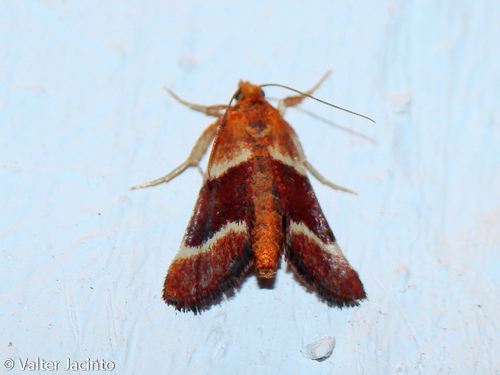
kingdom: Animalia
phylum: Arthropoda
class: Insecta
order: Lepidoptera
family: Pyralidae
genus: Stemmatophora
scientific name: Stemmatophora combustalis
